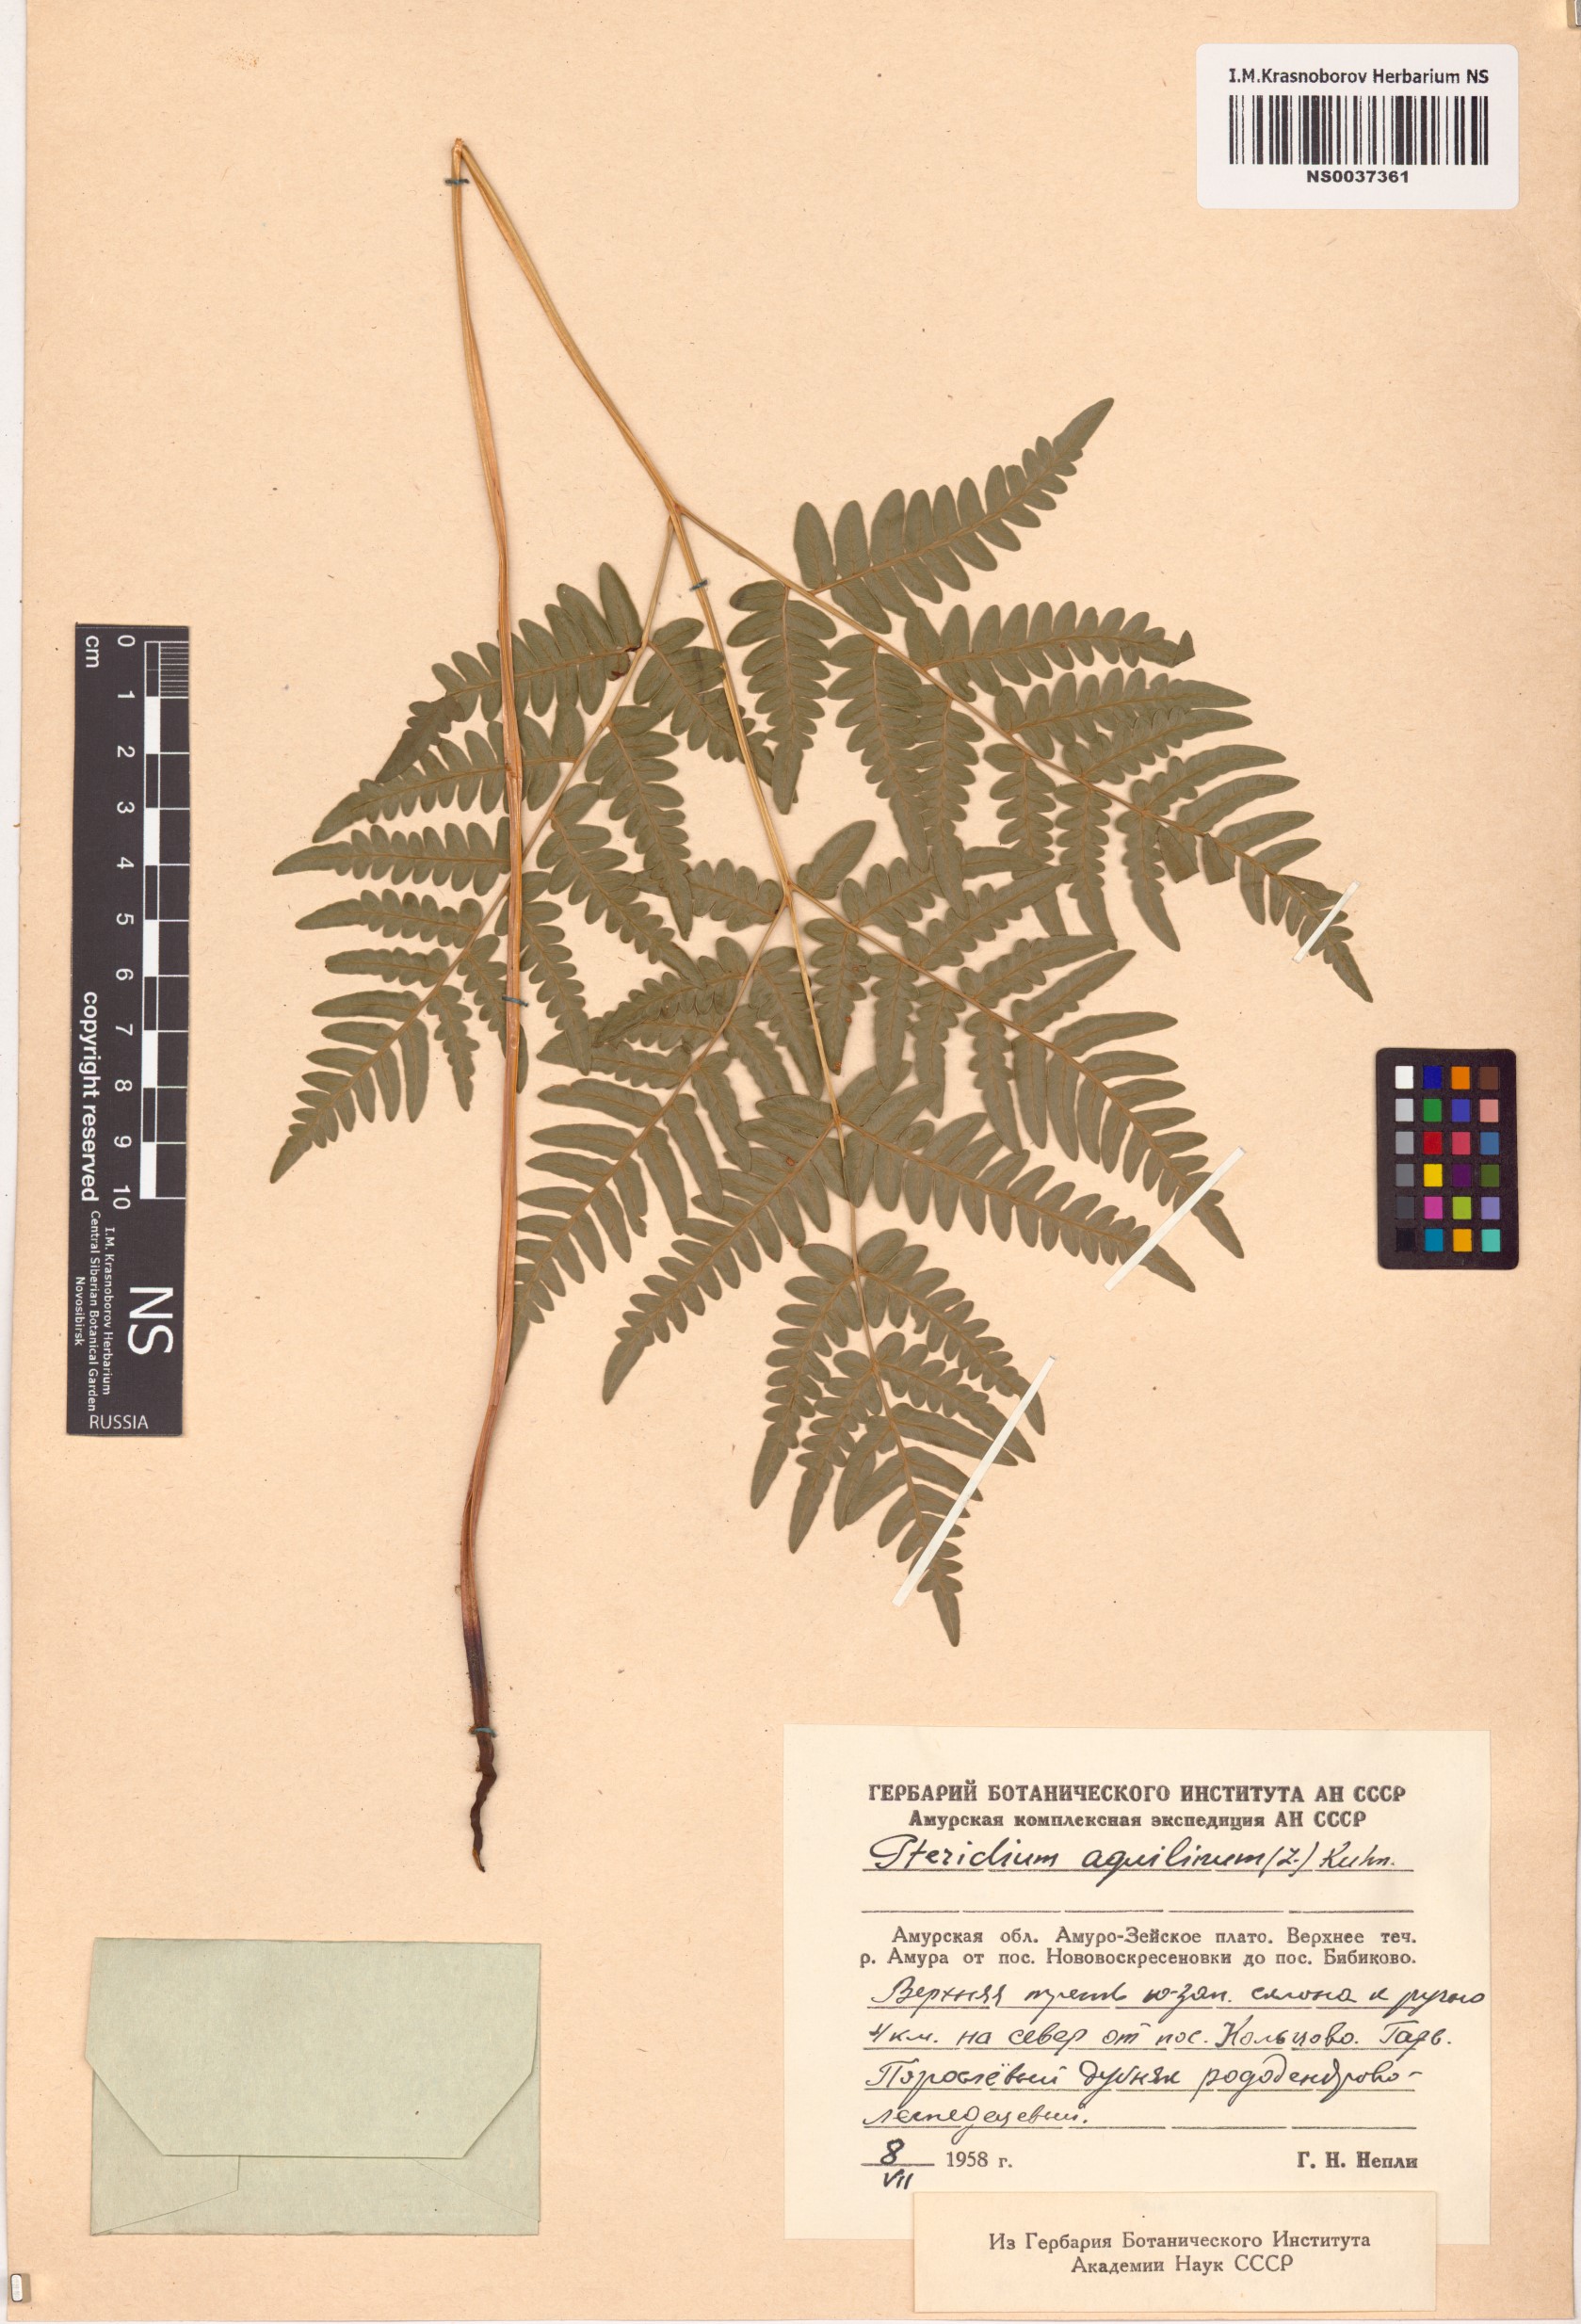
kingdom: Plantae
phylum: Tracheophyta
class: Polypodiopsida
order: Polypodiales
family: Dennstaedtiaceae
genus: Pteridium
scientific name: Pteridium aquilinum
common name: Bracken
